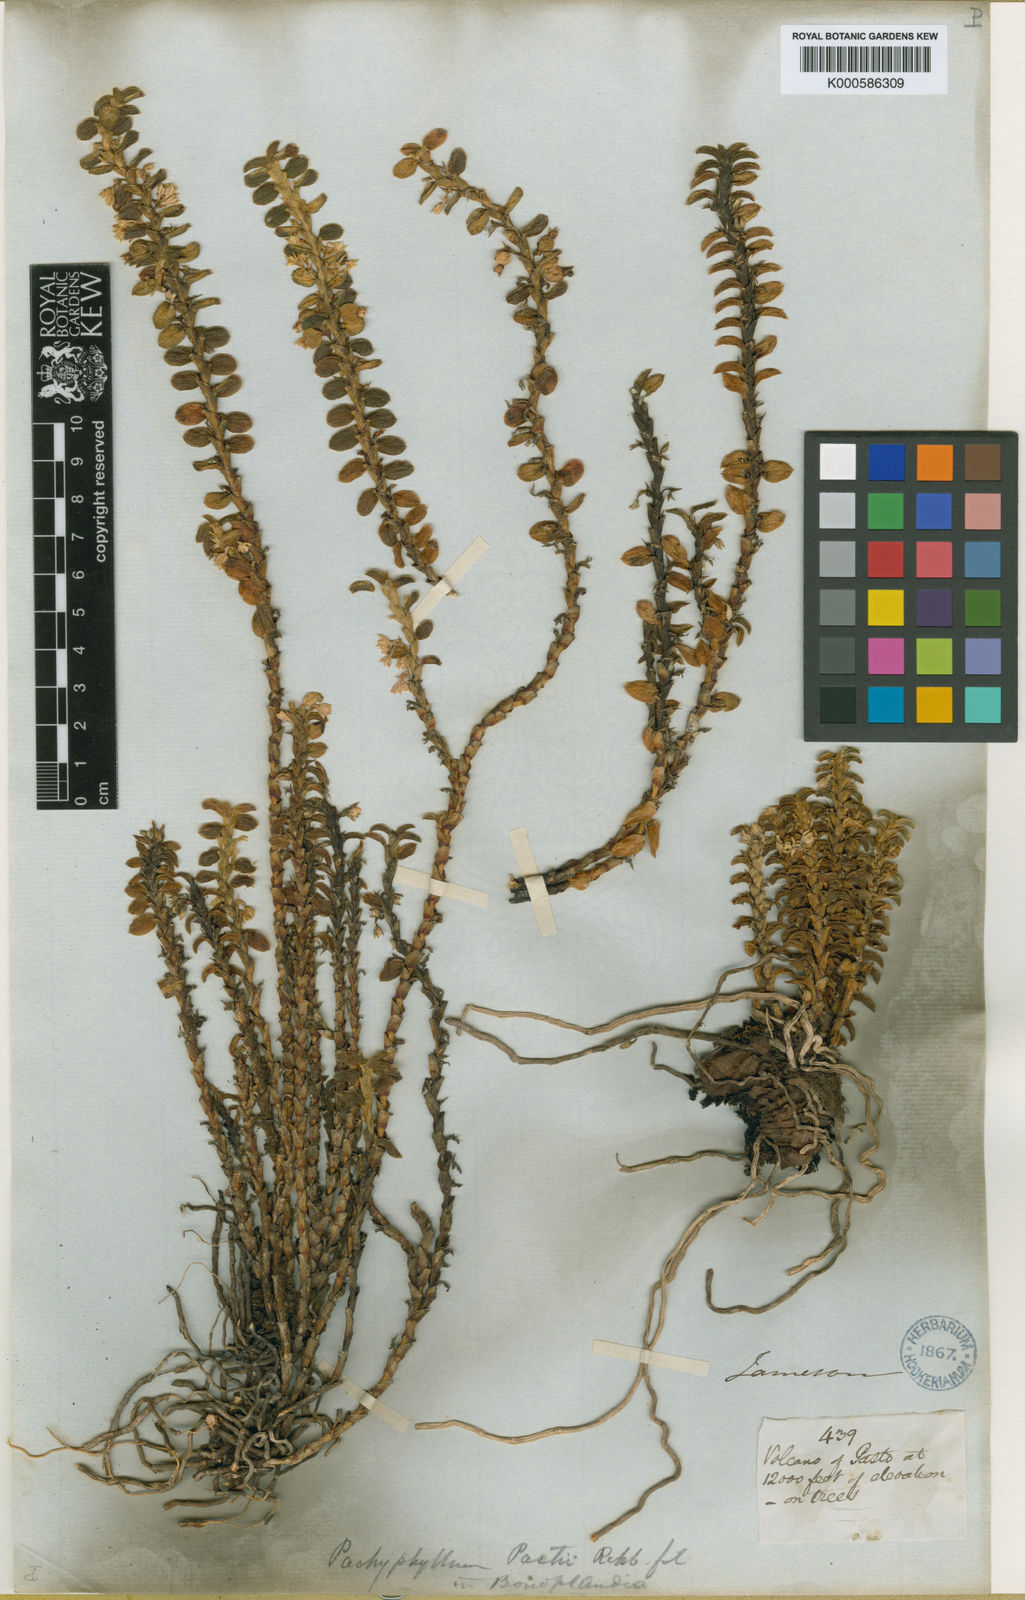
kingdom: Plantae
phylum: Tracheophyta
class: Liliopsida
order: Asparagales
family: Orchidaceae
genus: Fernandezia
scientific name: Fernandezia pastii
